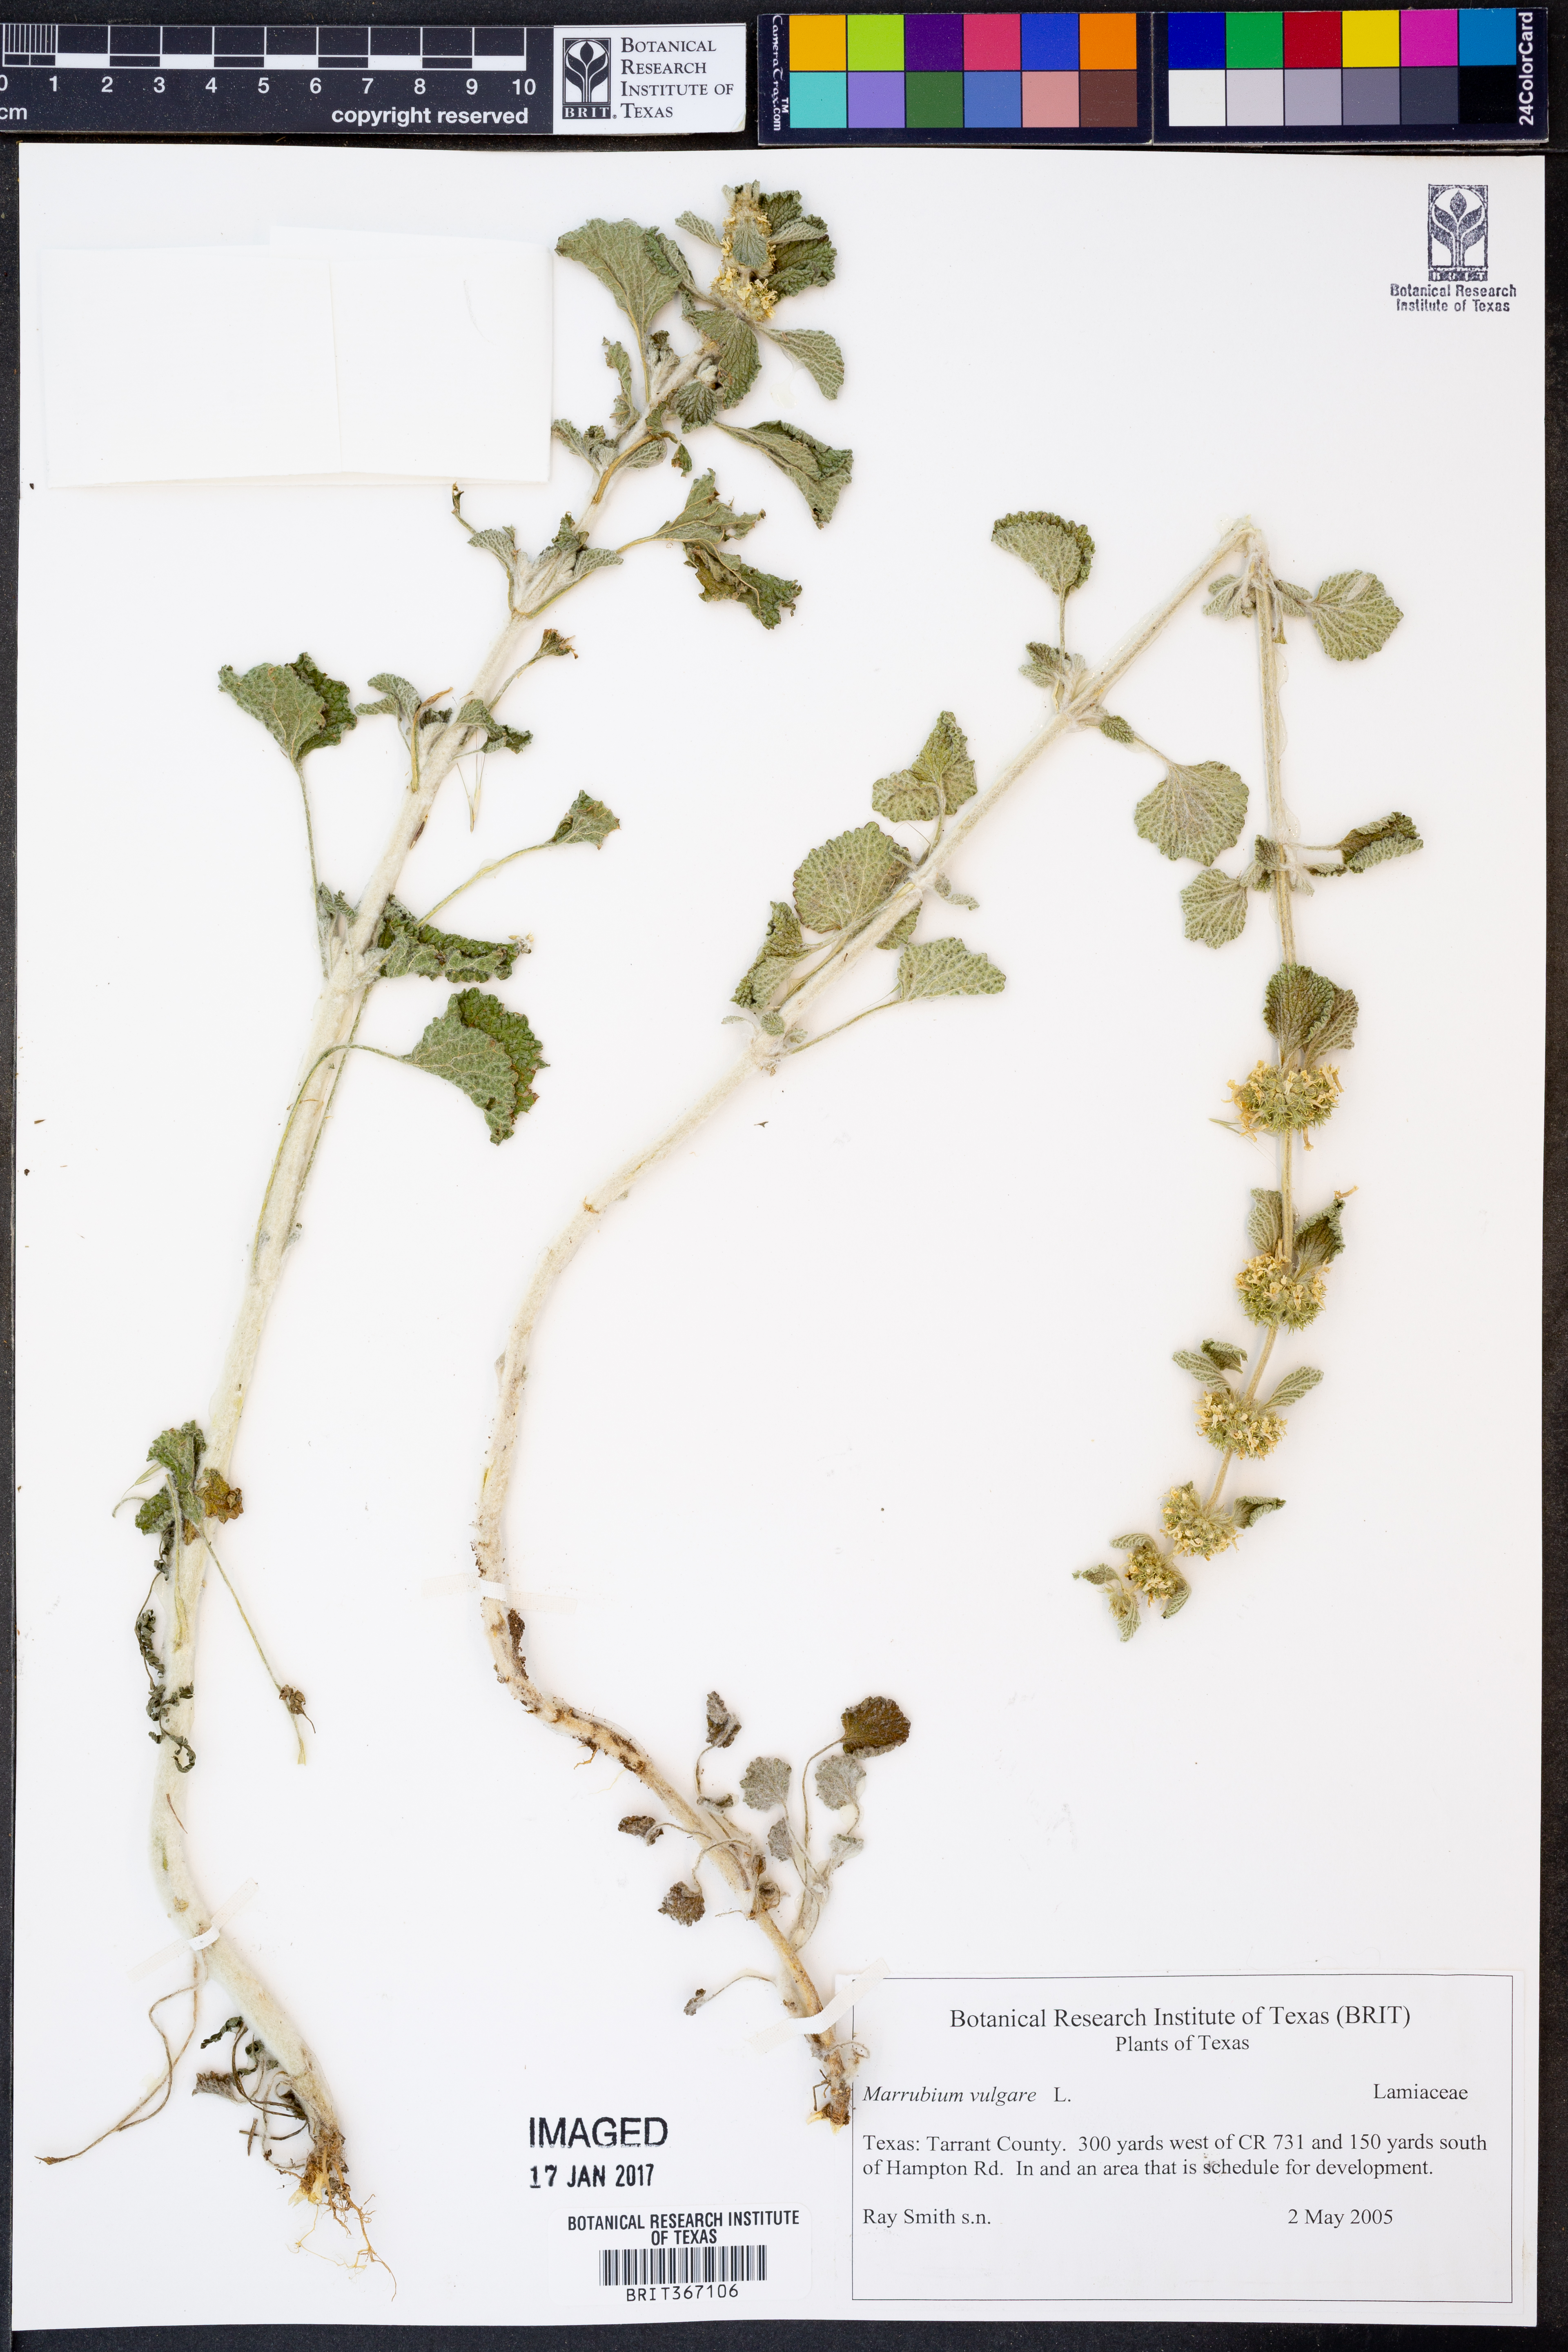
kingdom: Plantae
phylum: Tracheophyta
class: Magnoliopsida
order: Lamiales
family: Lamiaceae
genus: Marrubium
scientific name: Marrubium vulgare
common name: Horehound
